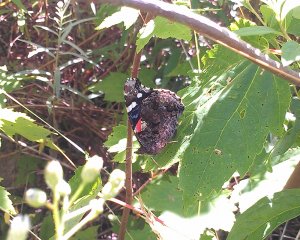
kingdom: Animalia
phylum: Arthropoda
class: Insecta
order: Lepidoptera
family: Nymphalidae
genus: Vanessa
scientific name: Vanessa atalanta
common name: Red Admiral
